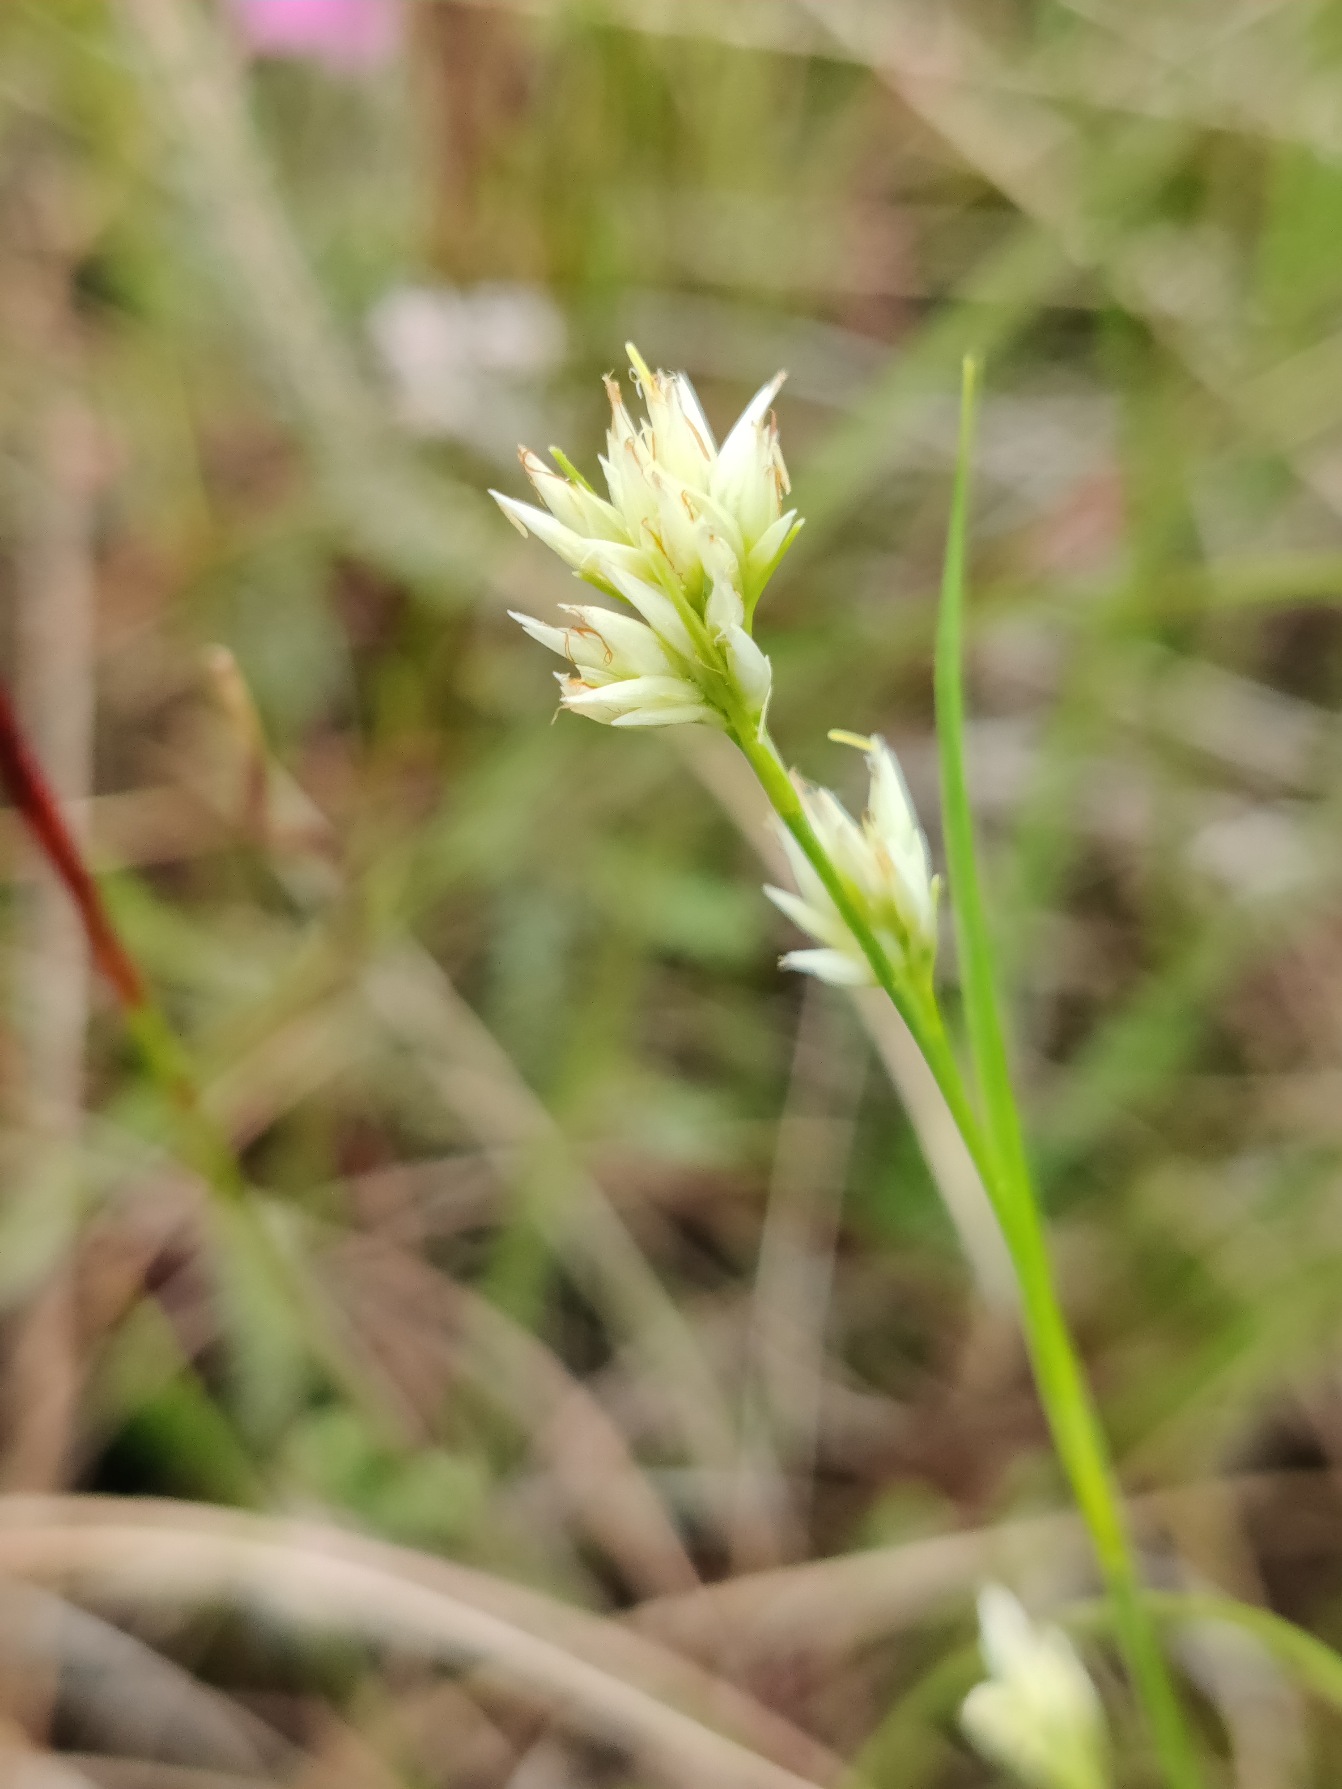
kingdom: Plantae
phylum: Tracheophyta
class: Liliopsida
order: Poales
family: Cyperaceae
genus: Rhynchospora
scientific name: Rhynchospora alba
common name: Hvid næbfrø
